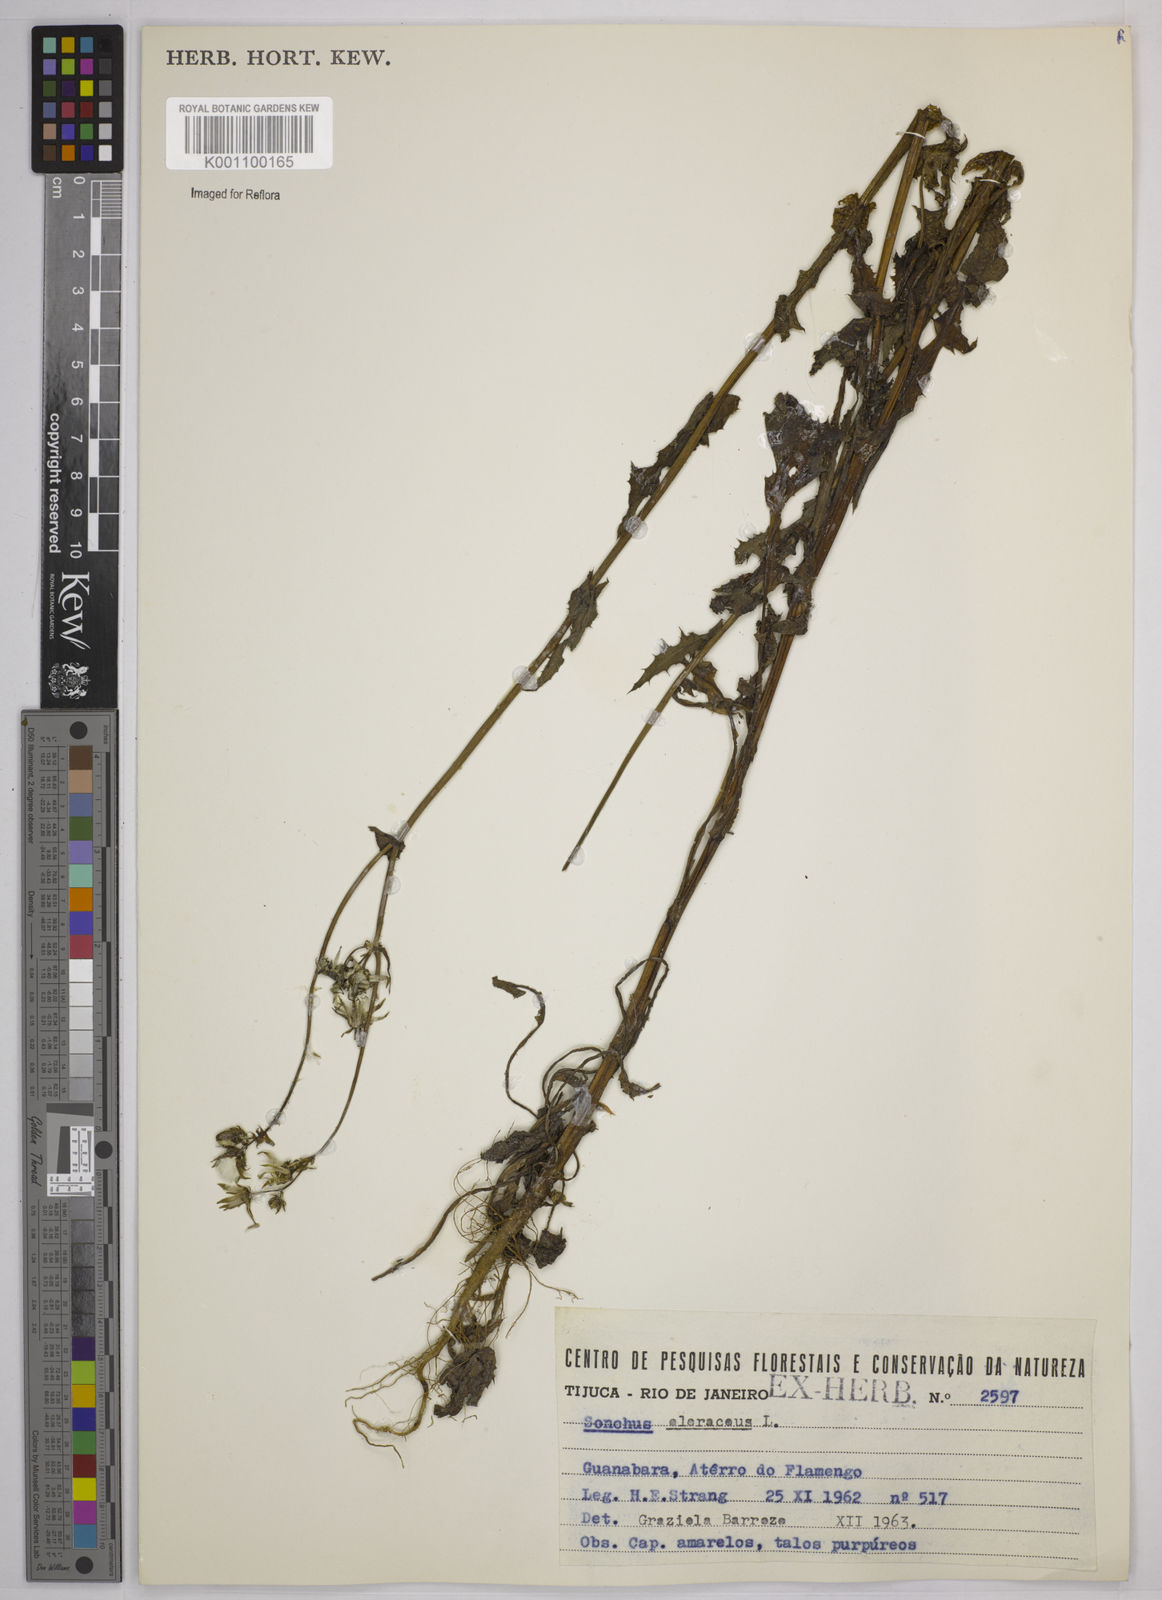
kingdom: Plantae
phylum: Tracheophyta
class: Magnoliopsida
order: Asterales
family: Asteraceae
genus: Sonchus
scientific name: Sonchus oleraceus
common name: Common sowthistle
